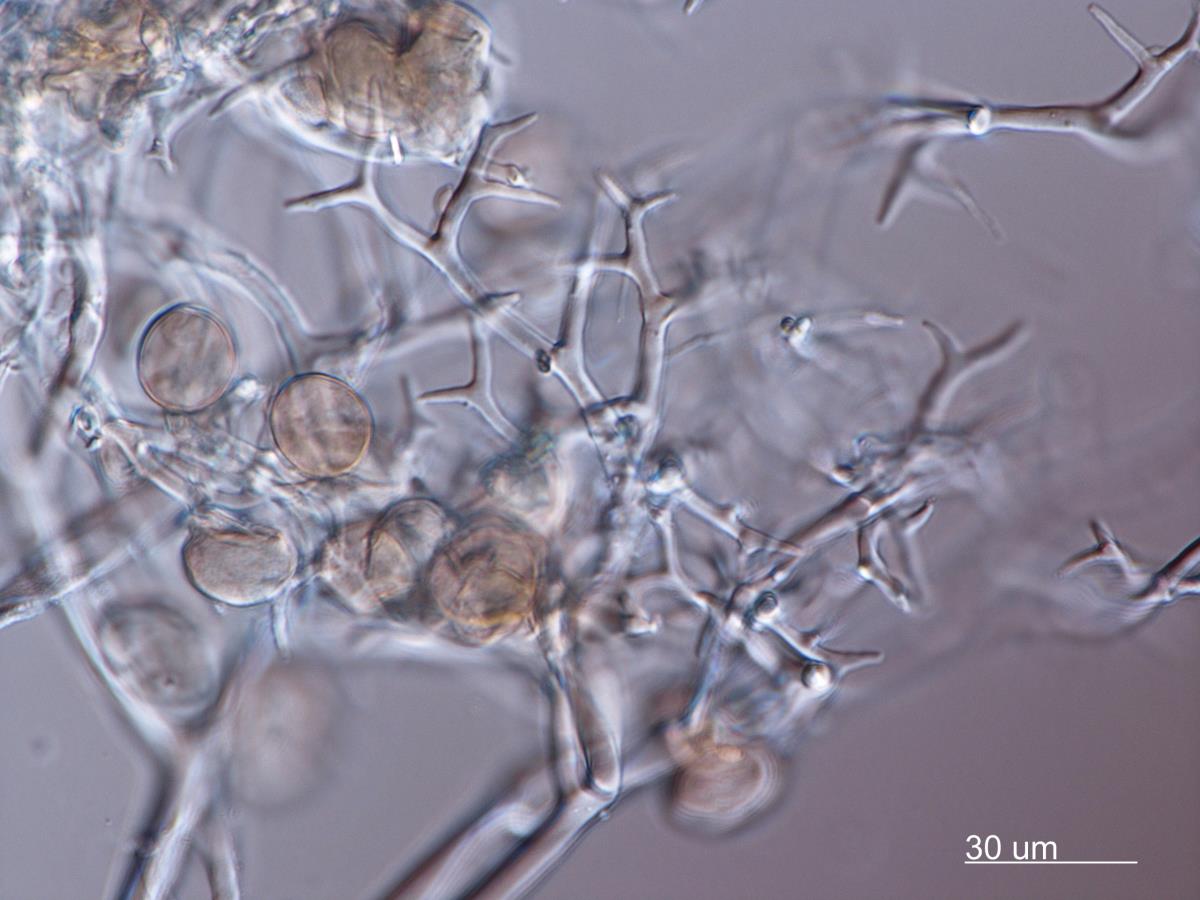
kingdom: Chromista
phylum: Oomycota
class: Peronosporea
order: Peronosporales
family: Peronosporaceae
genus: Peronospora
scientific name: Peronospora viciae
